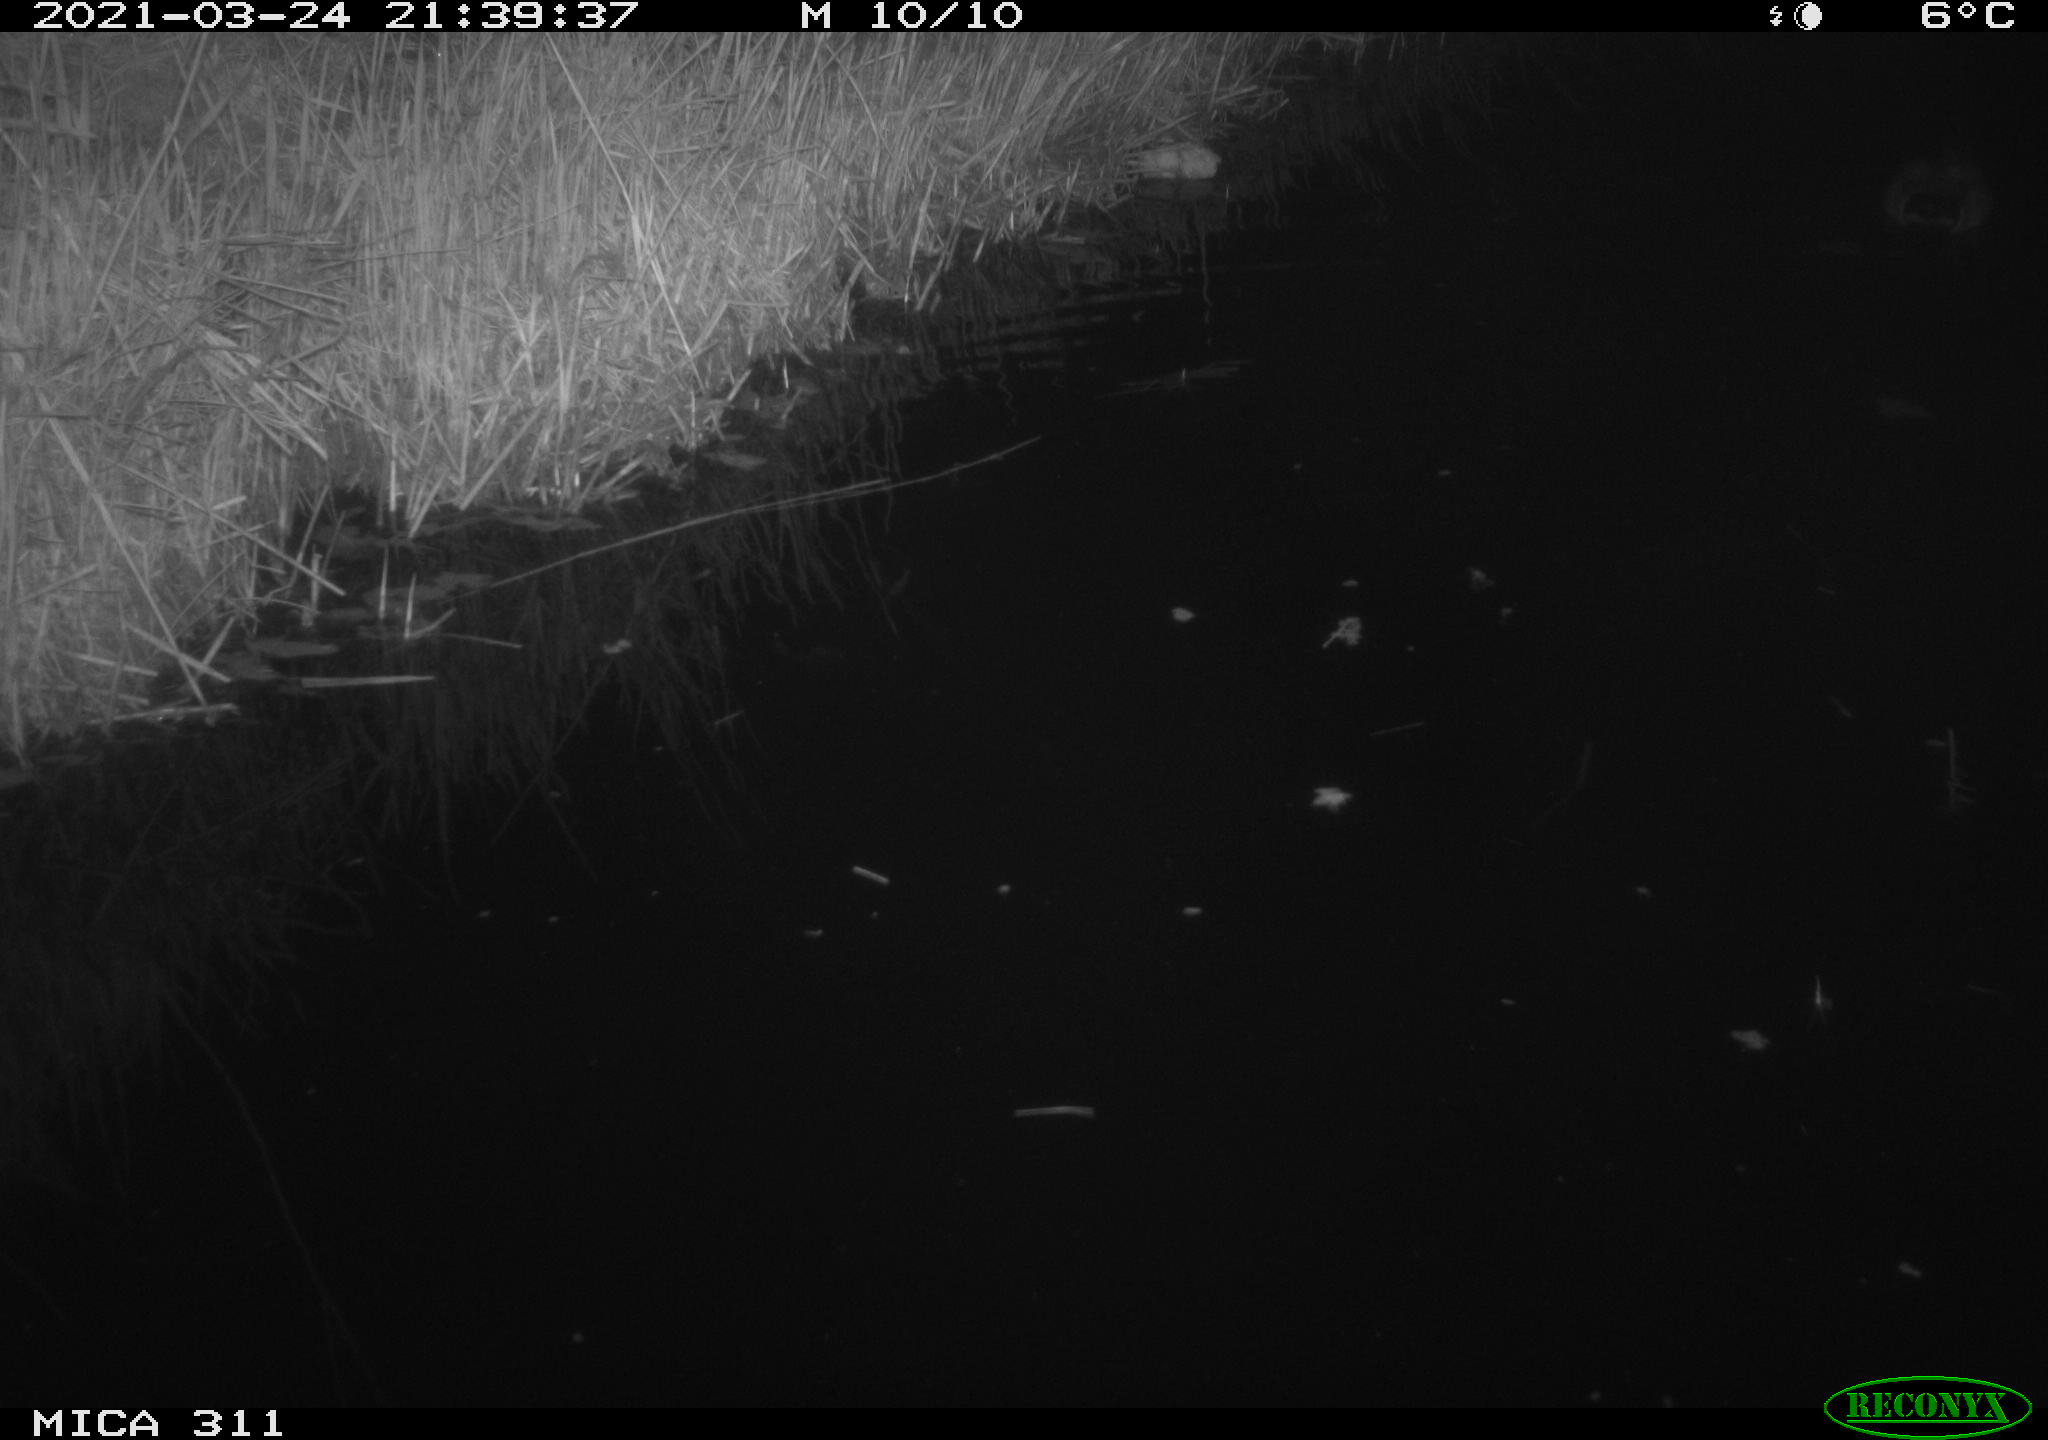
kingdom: Animalia
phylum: Chordata
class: Aves
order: Anseriformes
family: Anatidae
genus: Anas
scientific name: Anas
